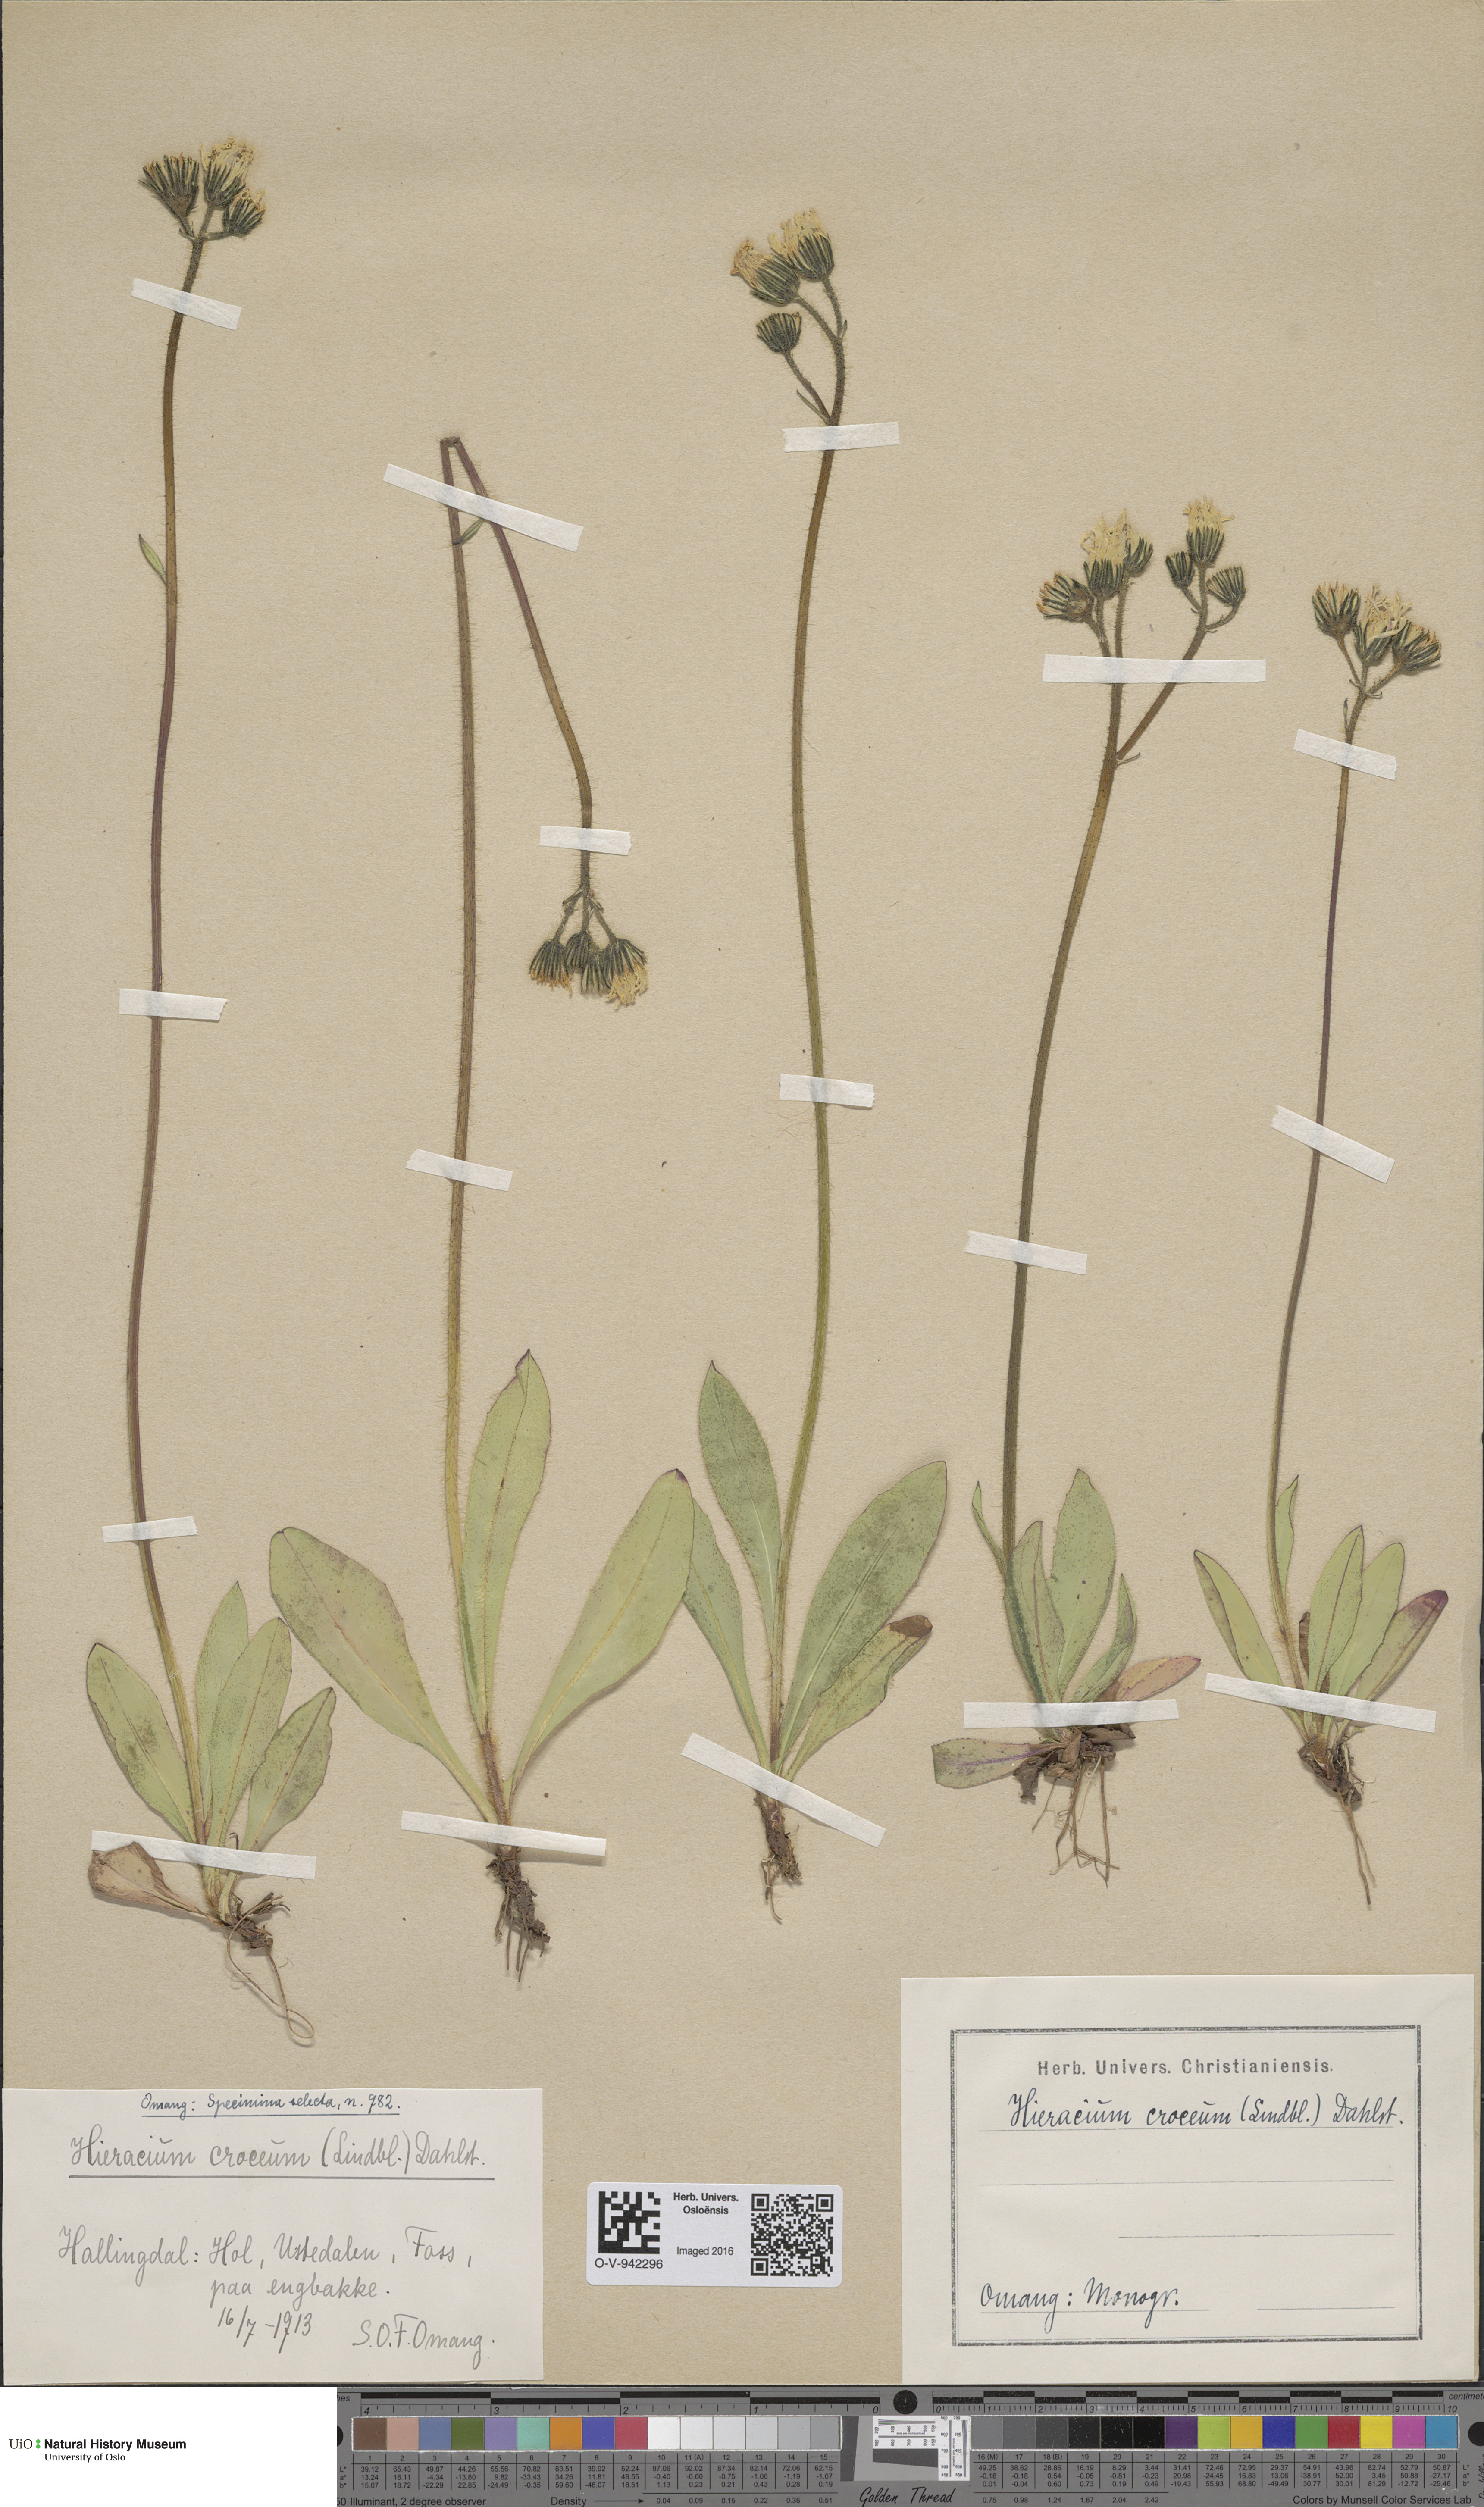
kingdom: Plantae
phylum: Tracheophyta
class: Magnoliopsida
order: Asterales
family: Asteraceae
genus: Pilosella
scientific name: Pilosella fuscoatra
